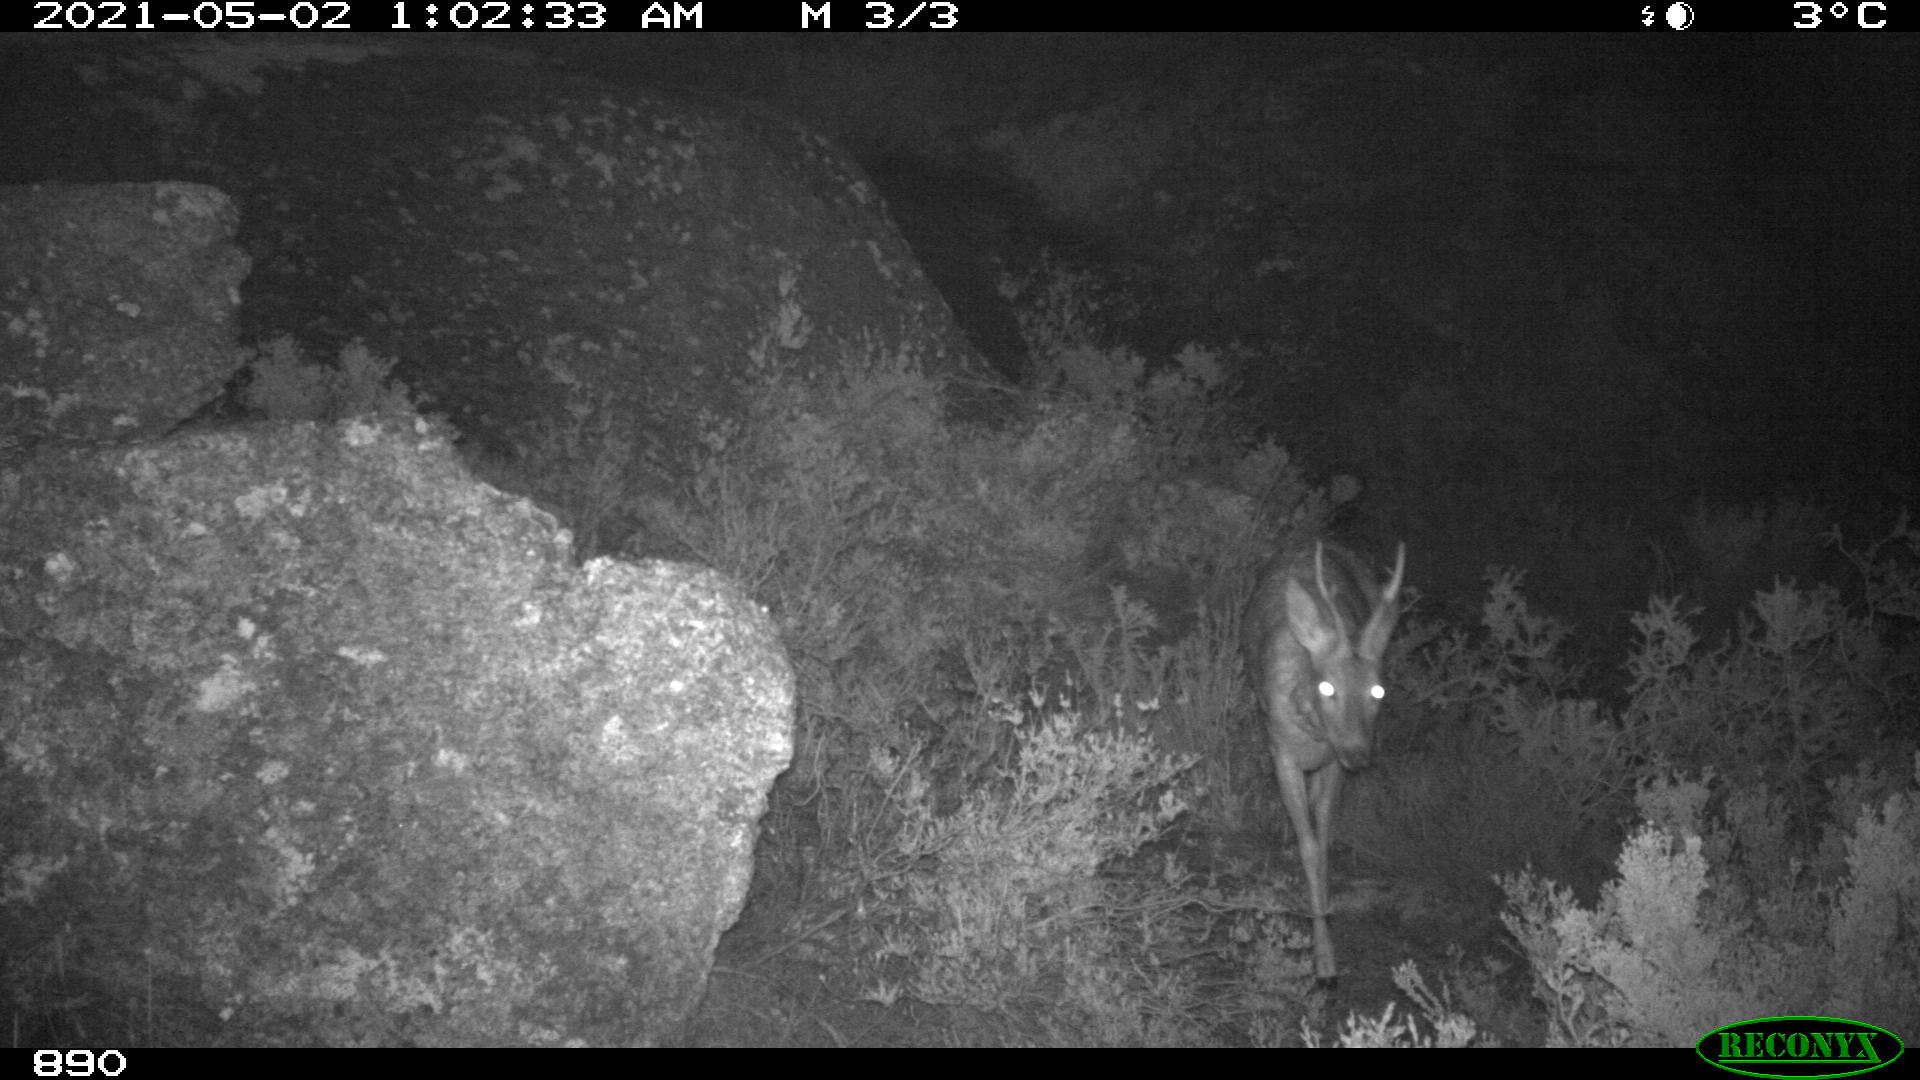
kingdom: Animalia
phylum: Chordata
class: Mammalia
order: Artiodactyla
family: Cervidae
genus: Capreolus
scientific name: Capreolus capreolus
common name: Western roe deer
